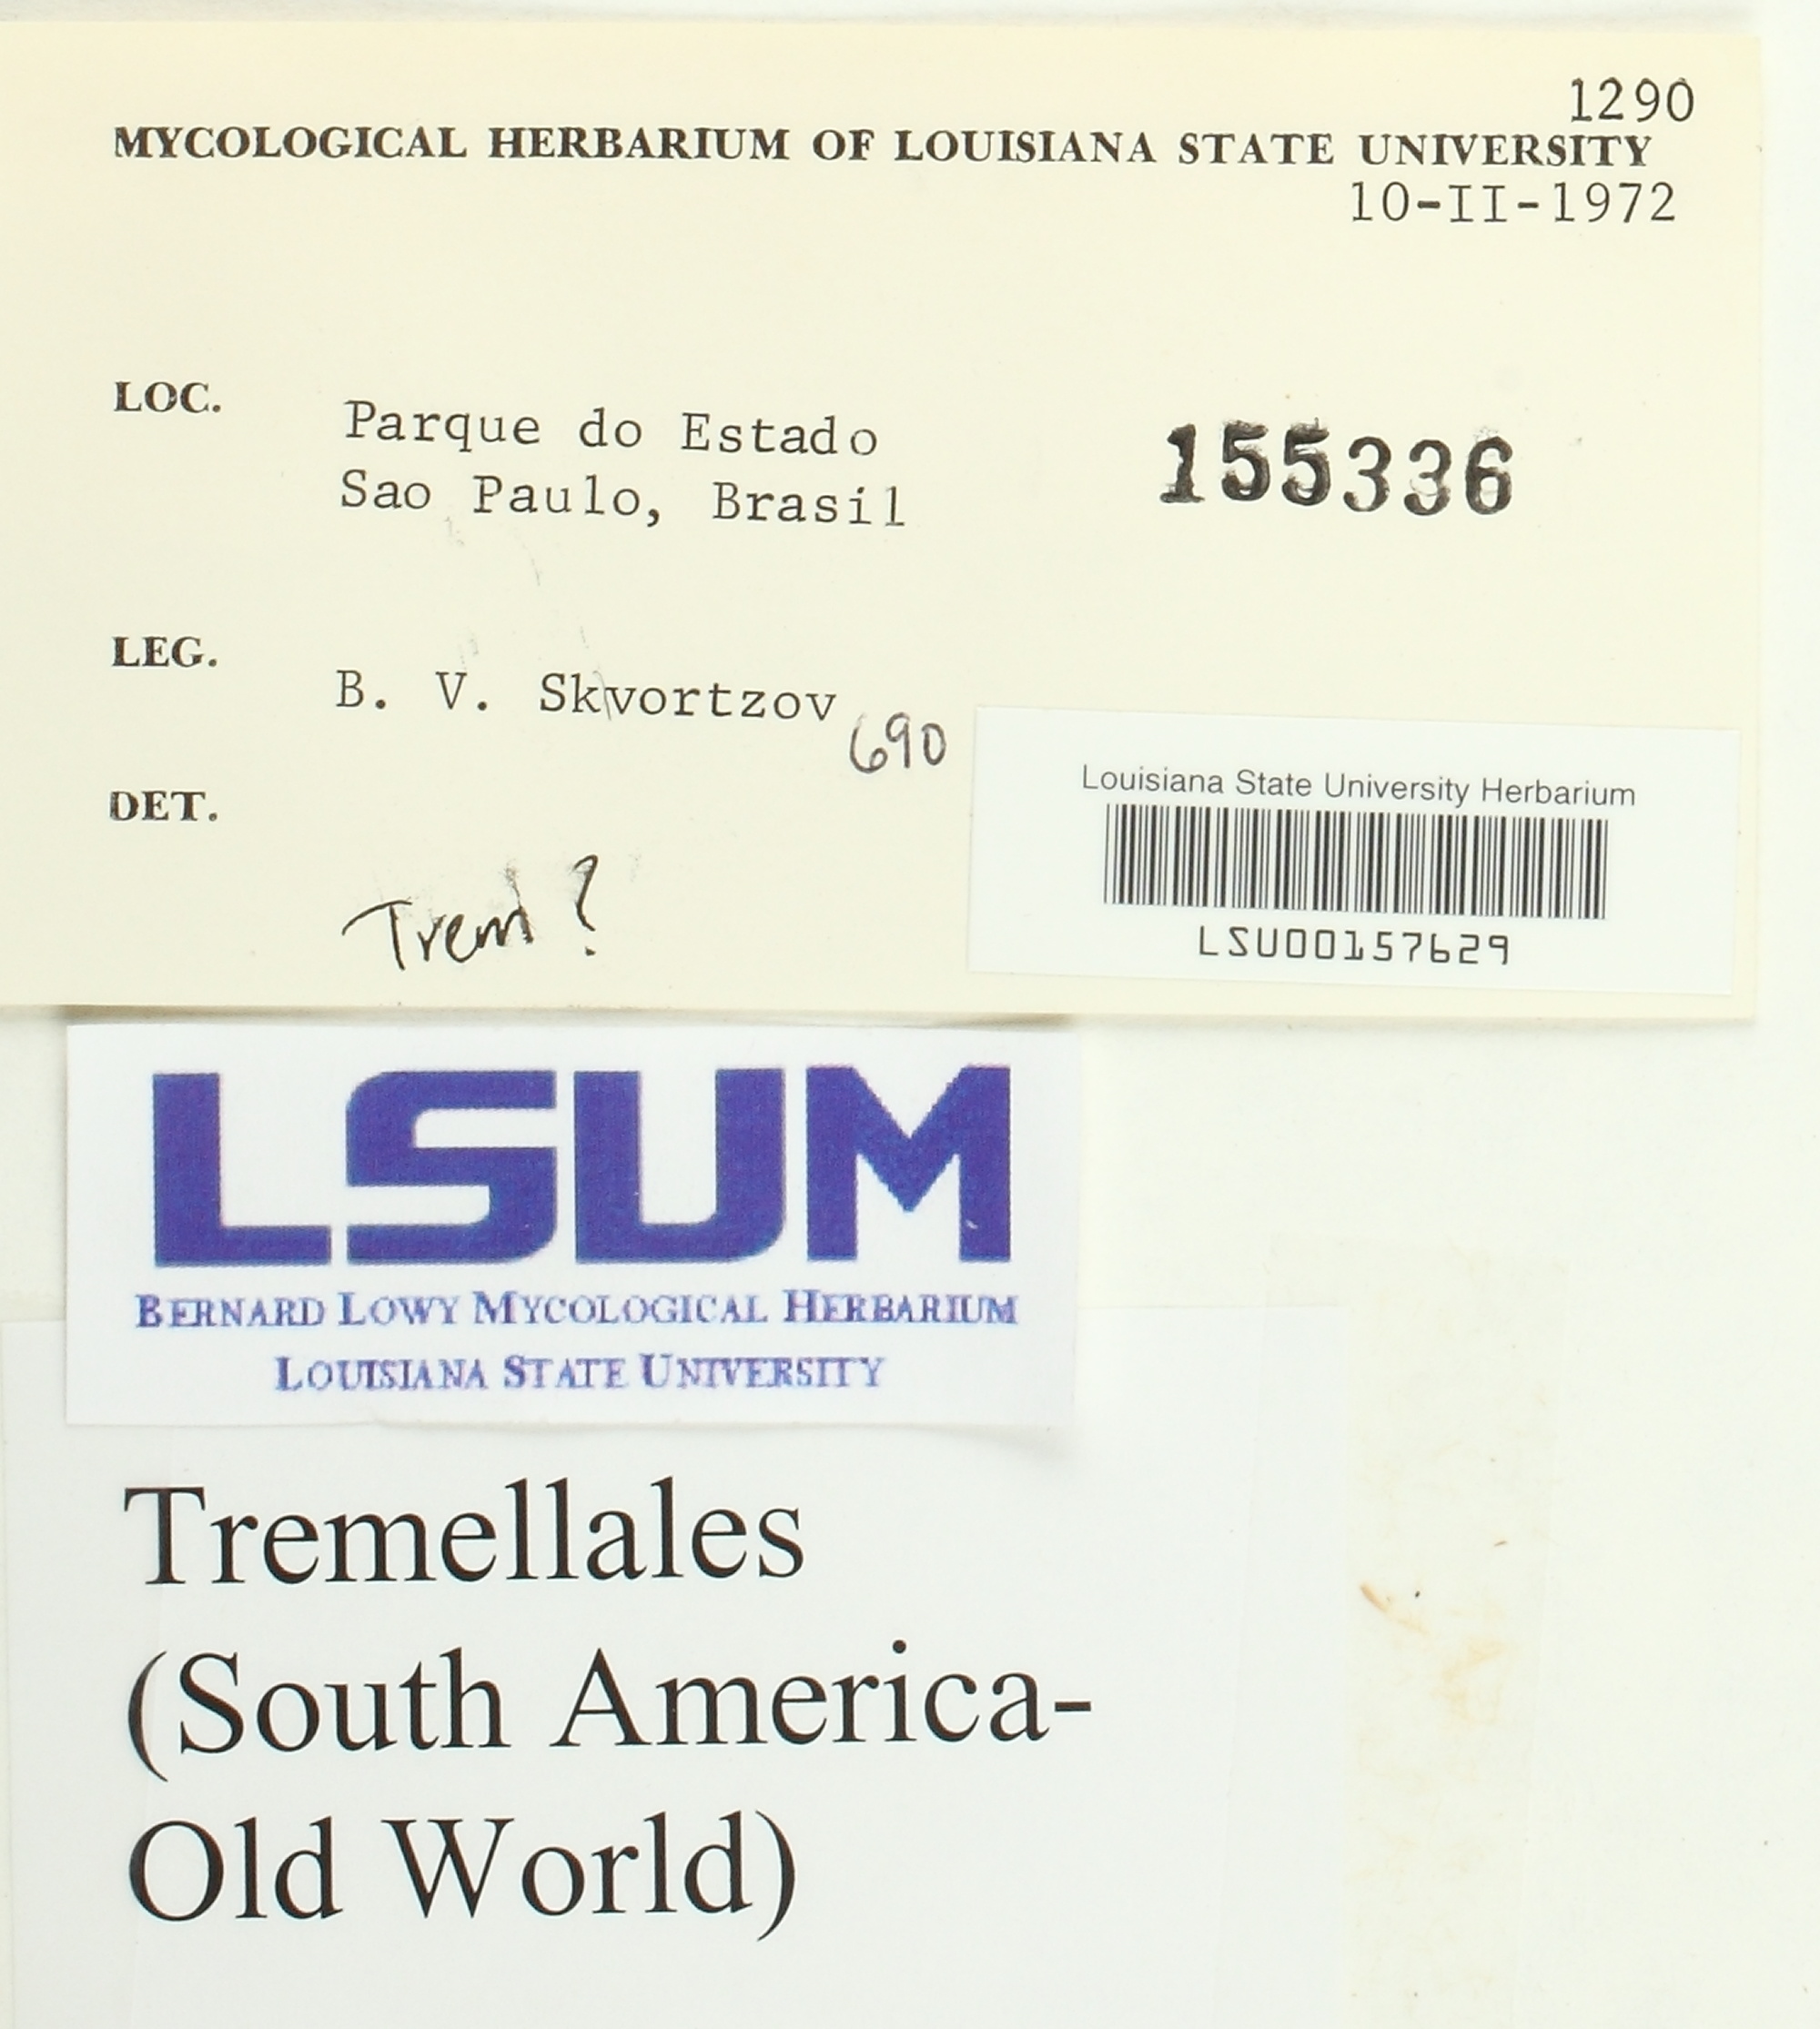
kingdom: Fungi
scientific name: Fungi
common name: Fungi
